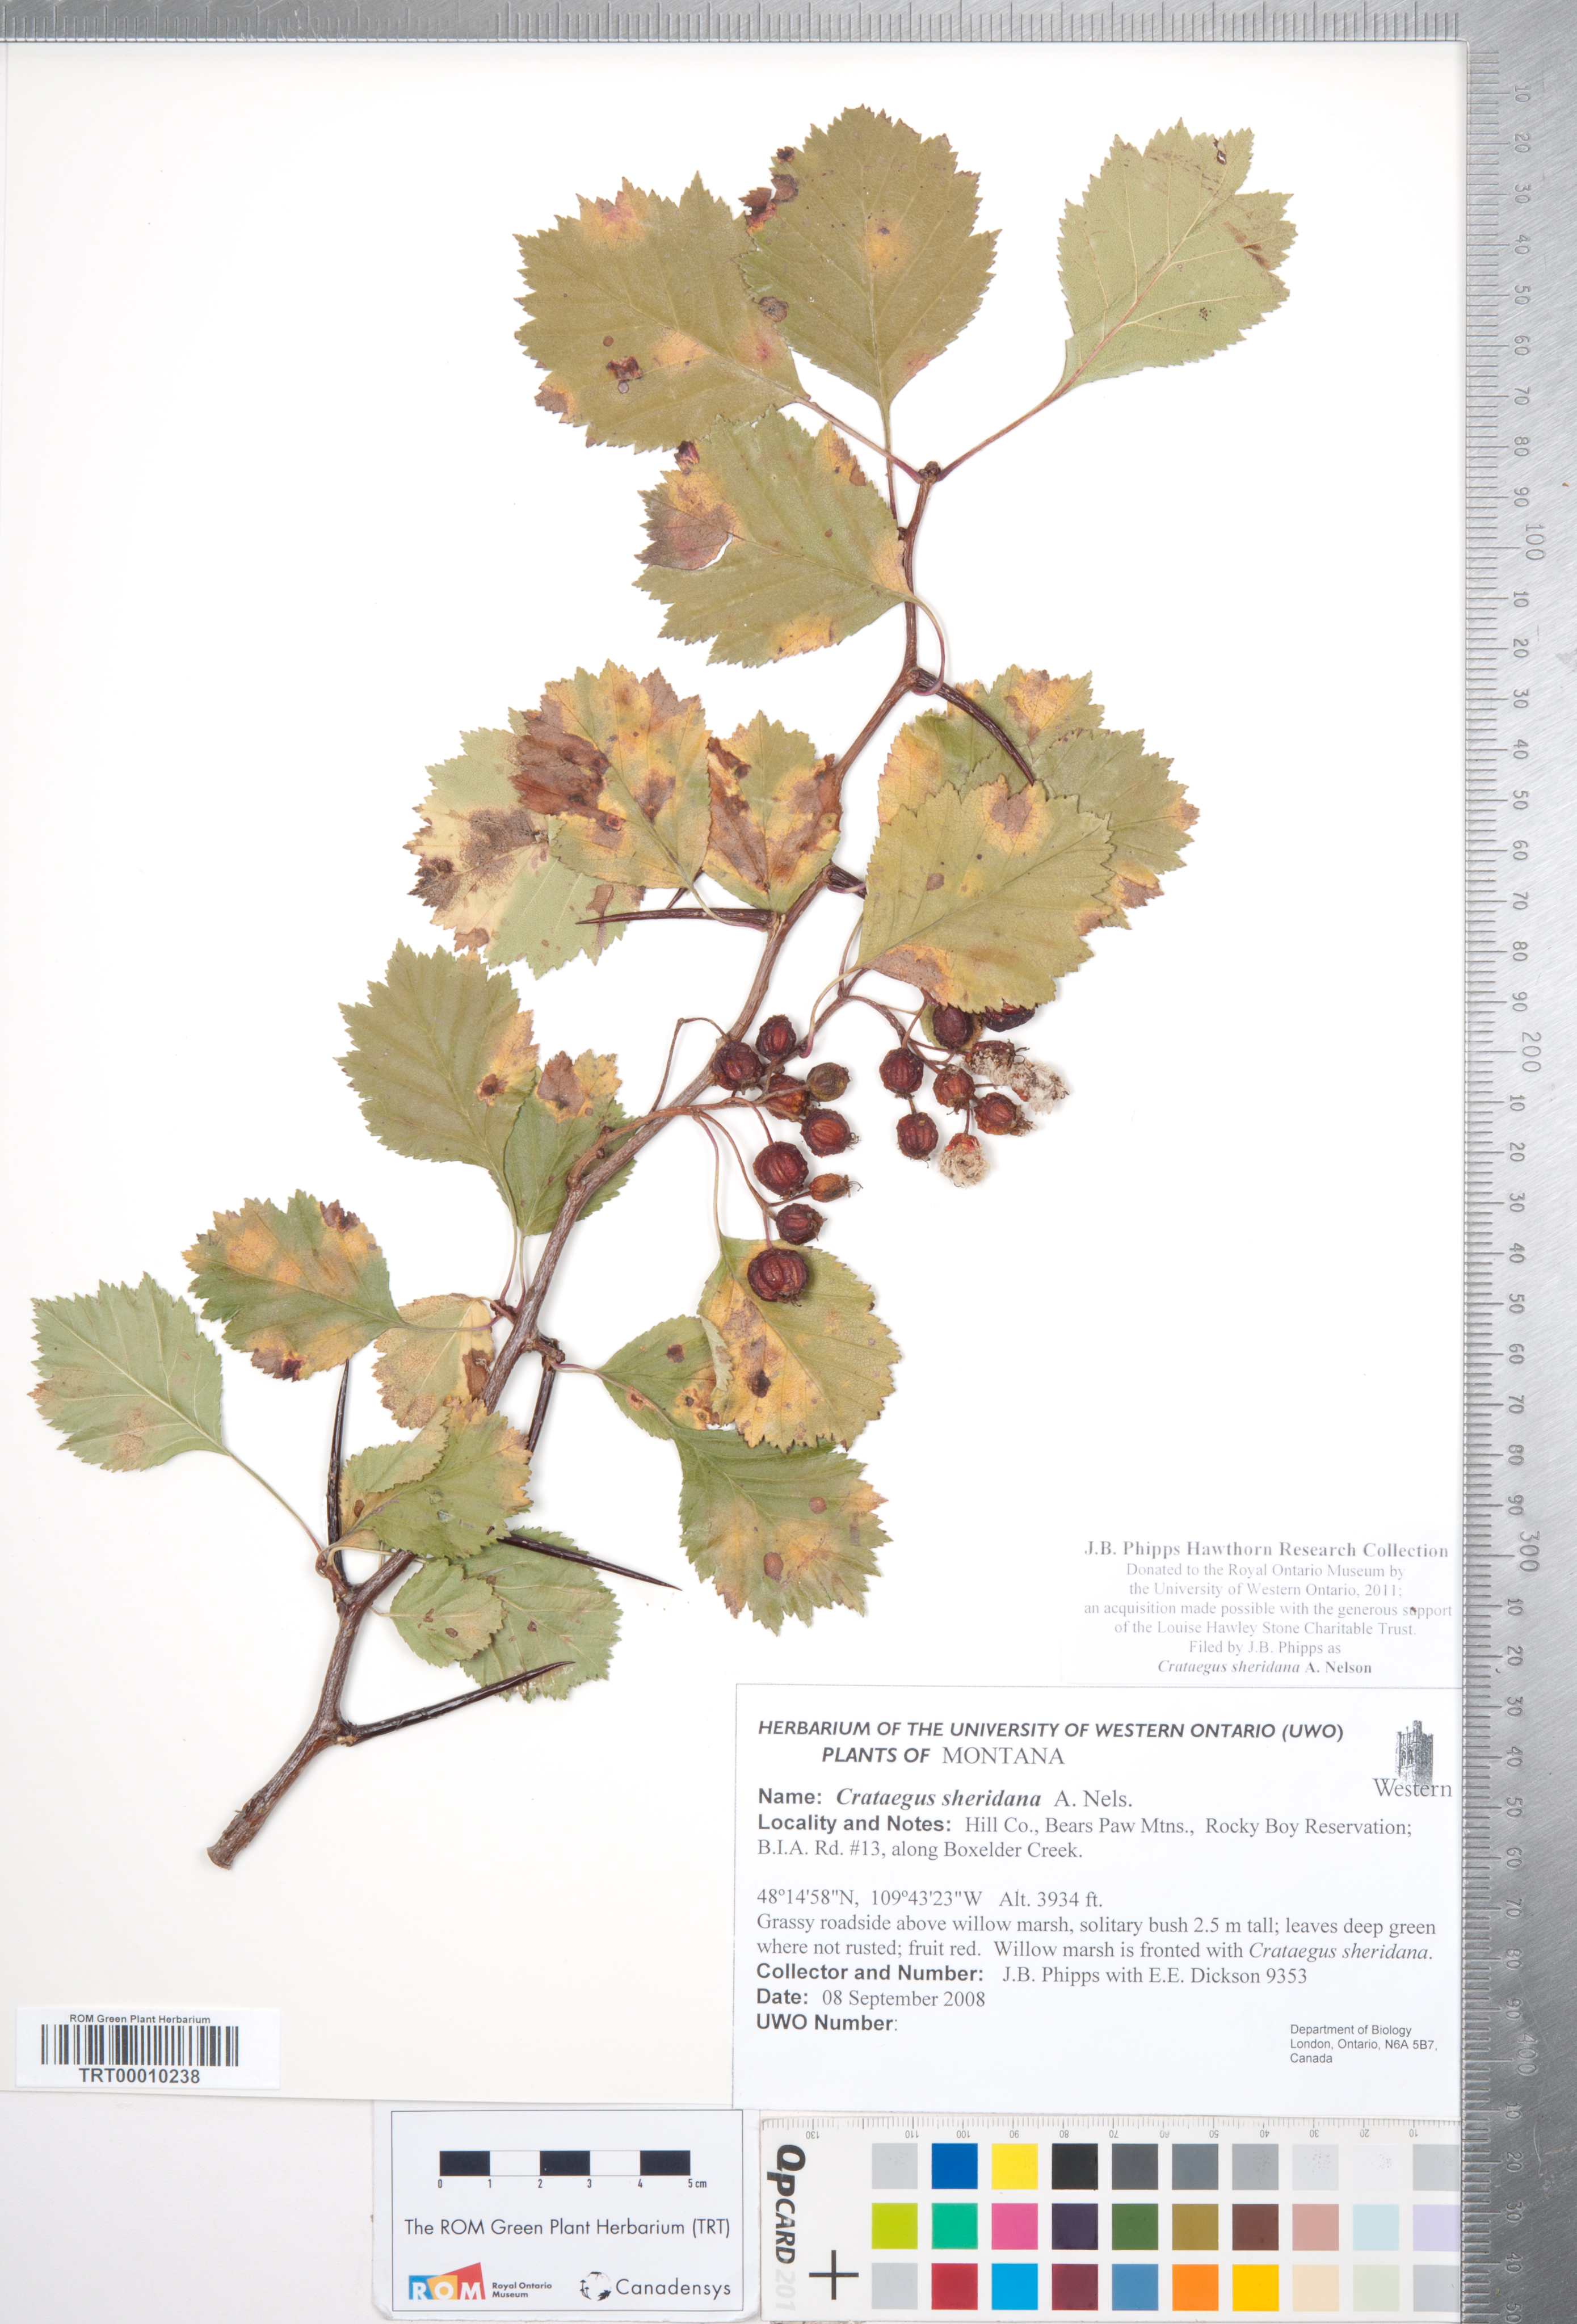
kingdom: Plantae
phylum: Tracheophyta
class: Magnoliopsida
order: Rosales
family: Rosaceae
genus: Crataegus
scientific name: Crataegus chrysocarpa
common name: Fire-berry hawthorn
